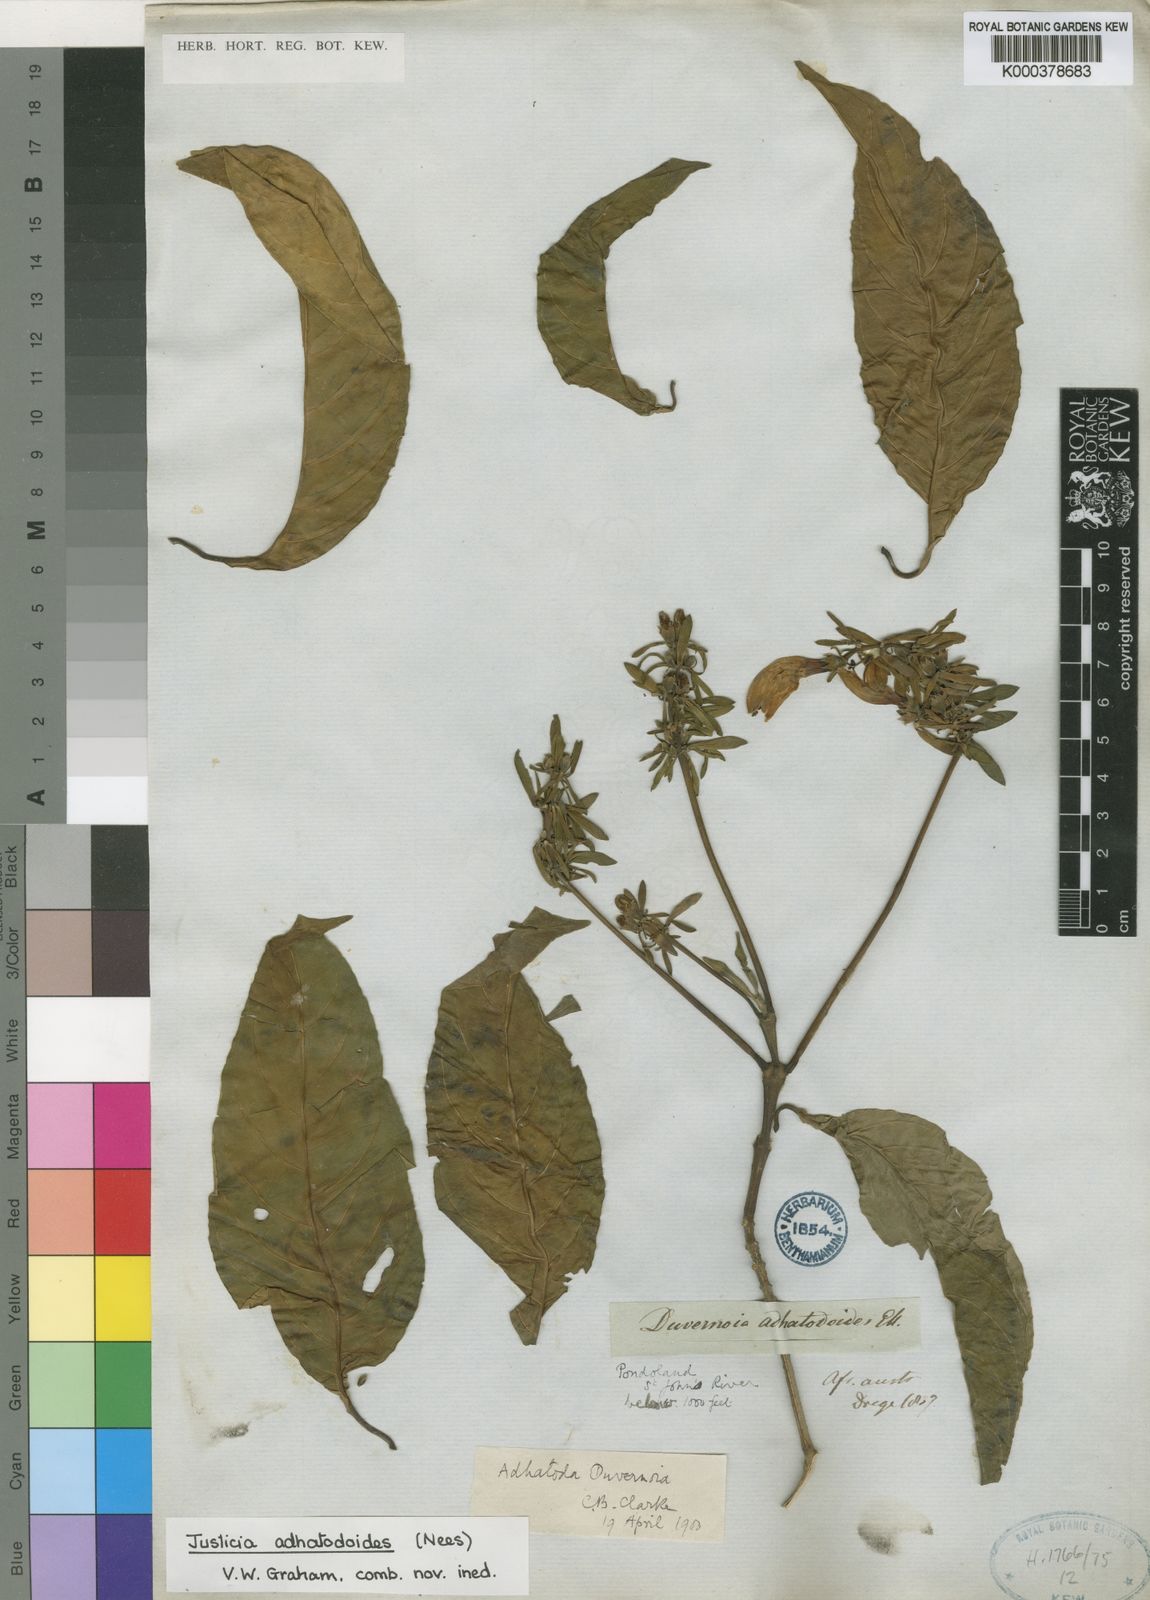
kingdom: Plantae
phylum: Tracheophyta
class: Magnoliopsida
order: Lamiales
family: Acanthaceae
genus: Justicia
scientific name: Justicia adhatodoides
